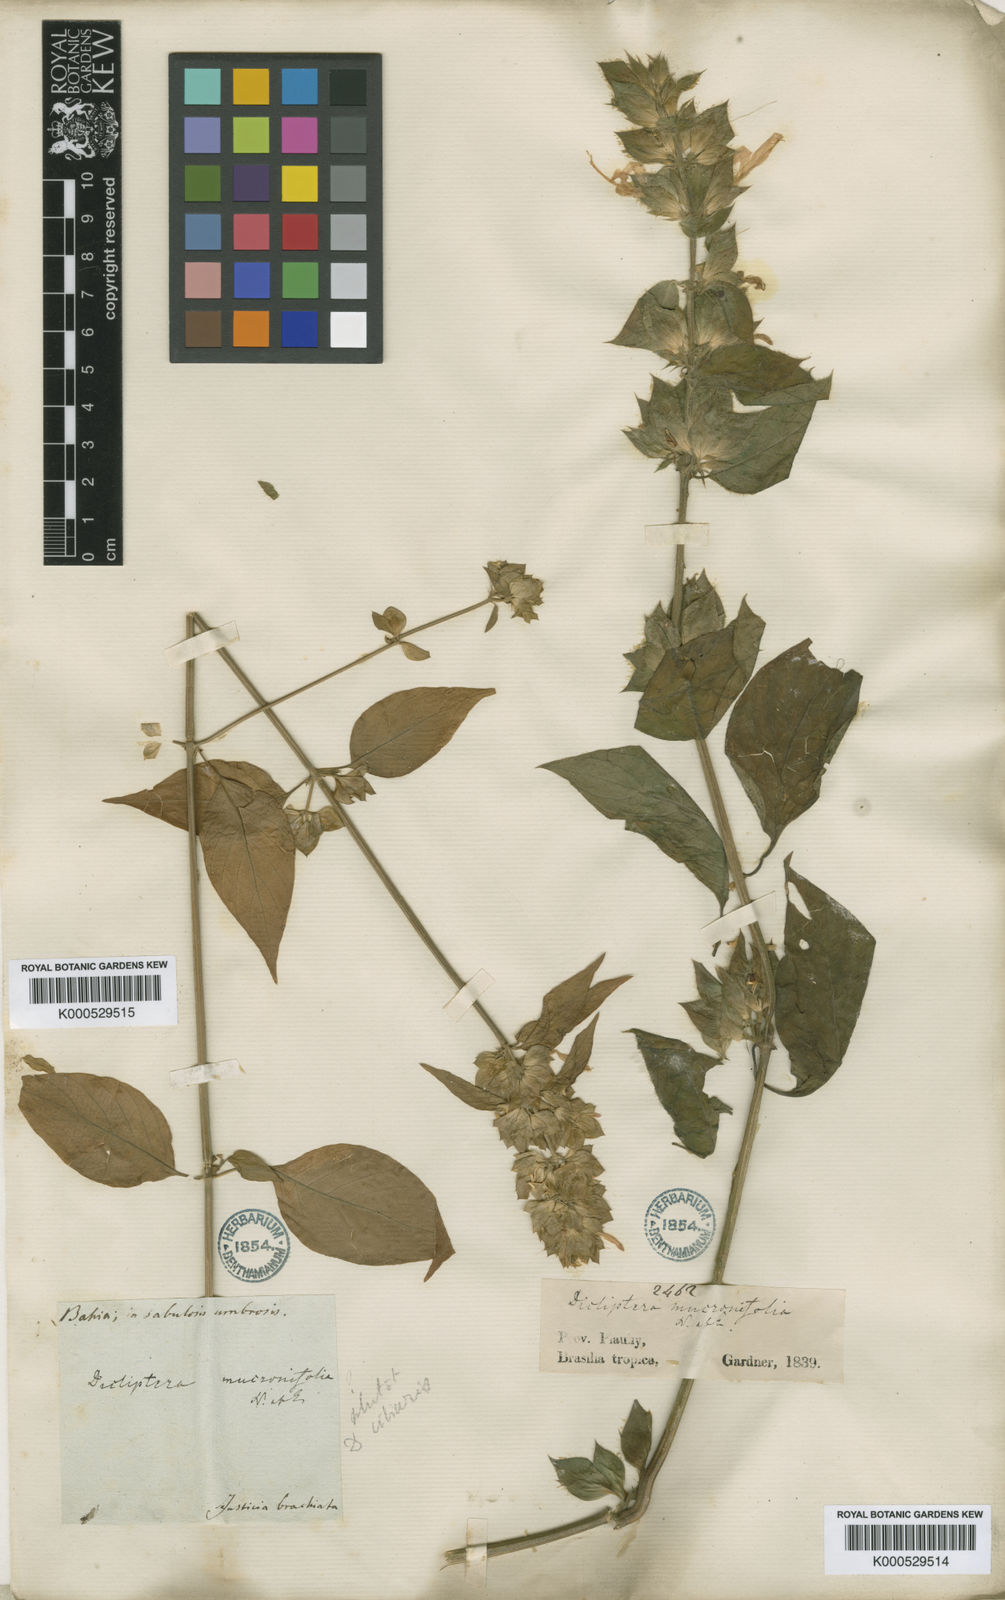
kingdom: Plantae
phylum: Tracheophyta
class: Magnoliopsida
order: Lamiales
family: Acanthaceae
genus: Dicliptera
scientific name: Dicliptera mucronifolia
